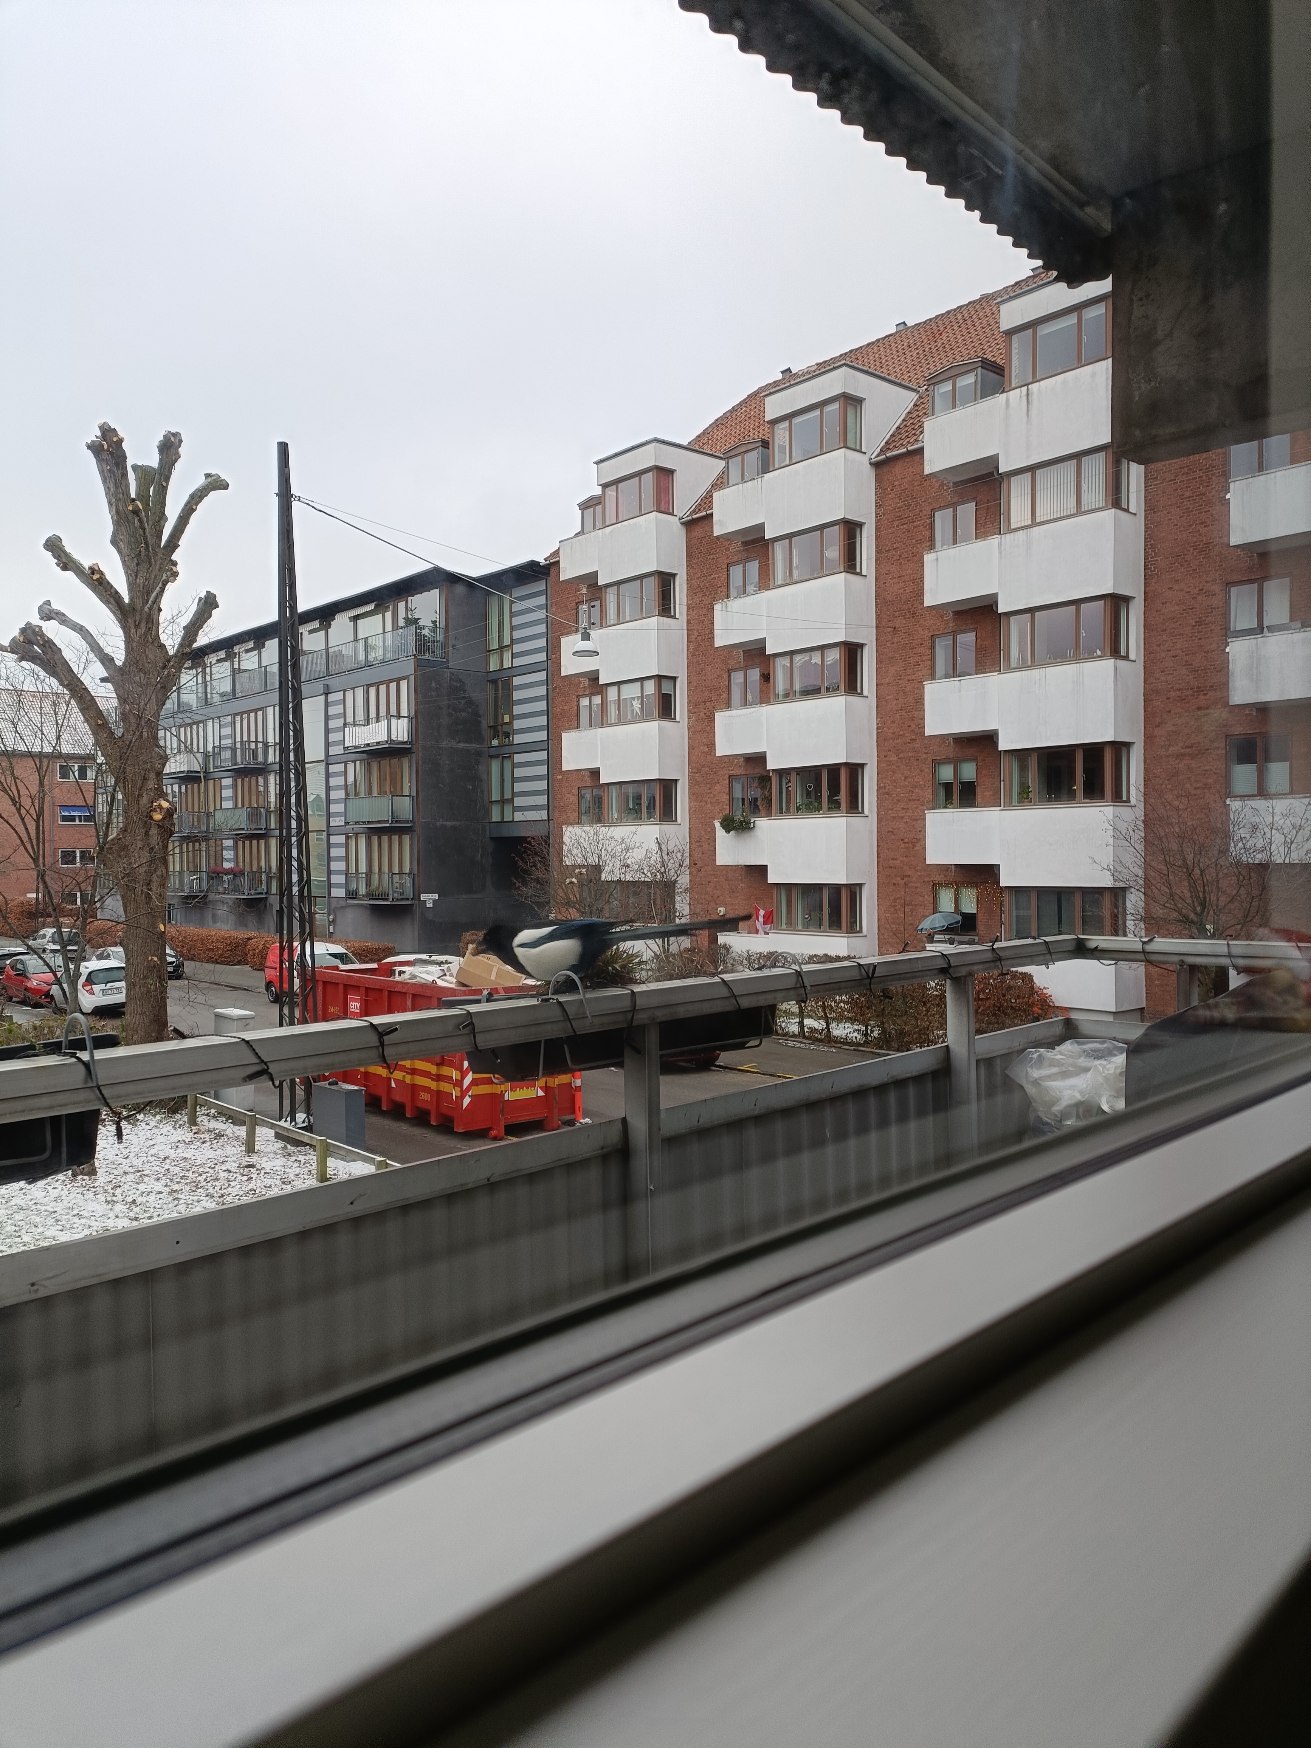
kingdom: Animalia
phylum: Chordata
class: Aves
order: Passeriformes
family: Corvidae
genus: Pica
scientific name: Pica pica
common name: Husskade
